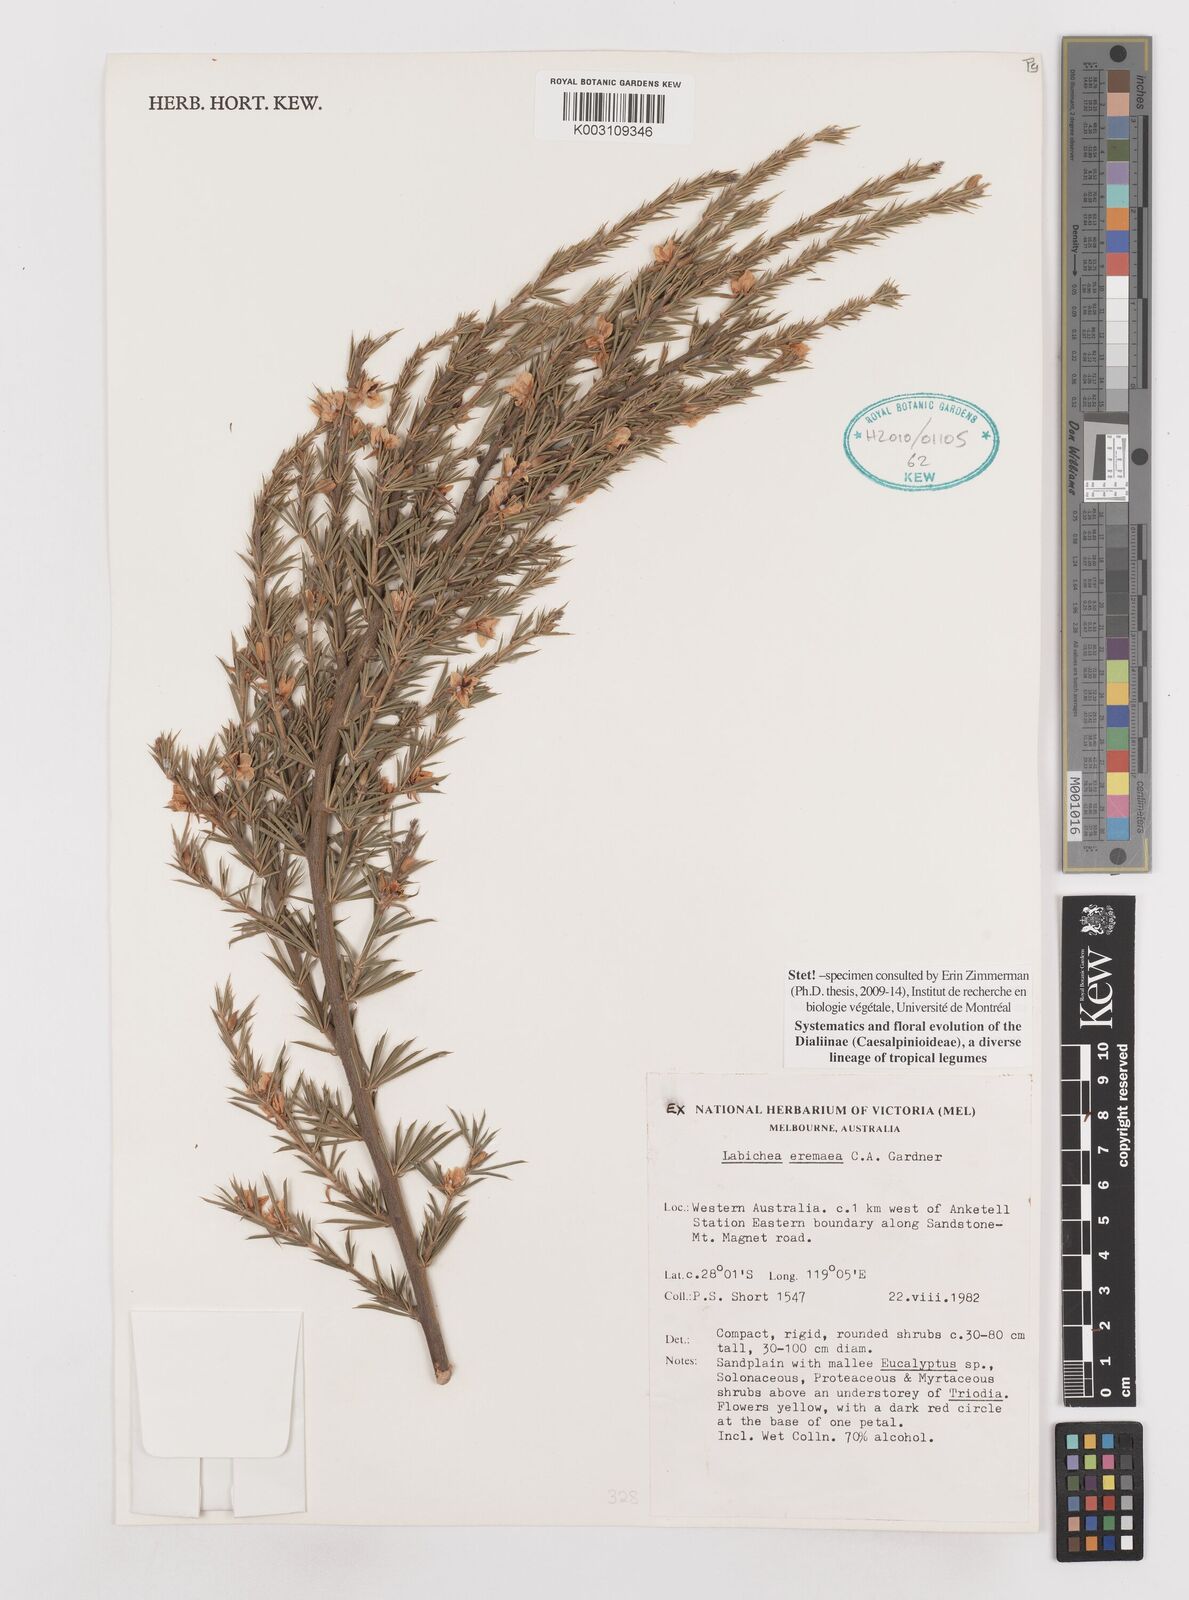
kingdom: Plantae
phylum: Tracheophyta
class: Magnoliopsida
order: Fabales
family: Fabaceae
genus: Labichea
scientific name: Labichea eremaea
